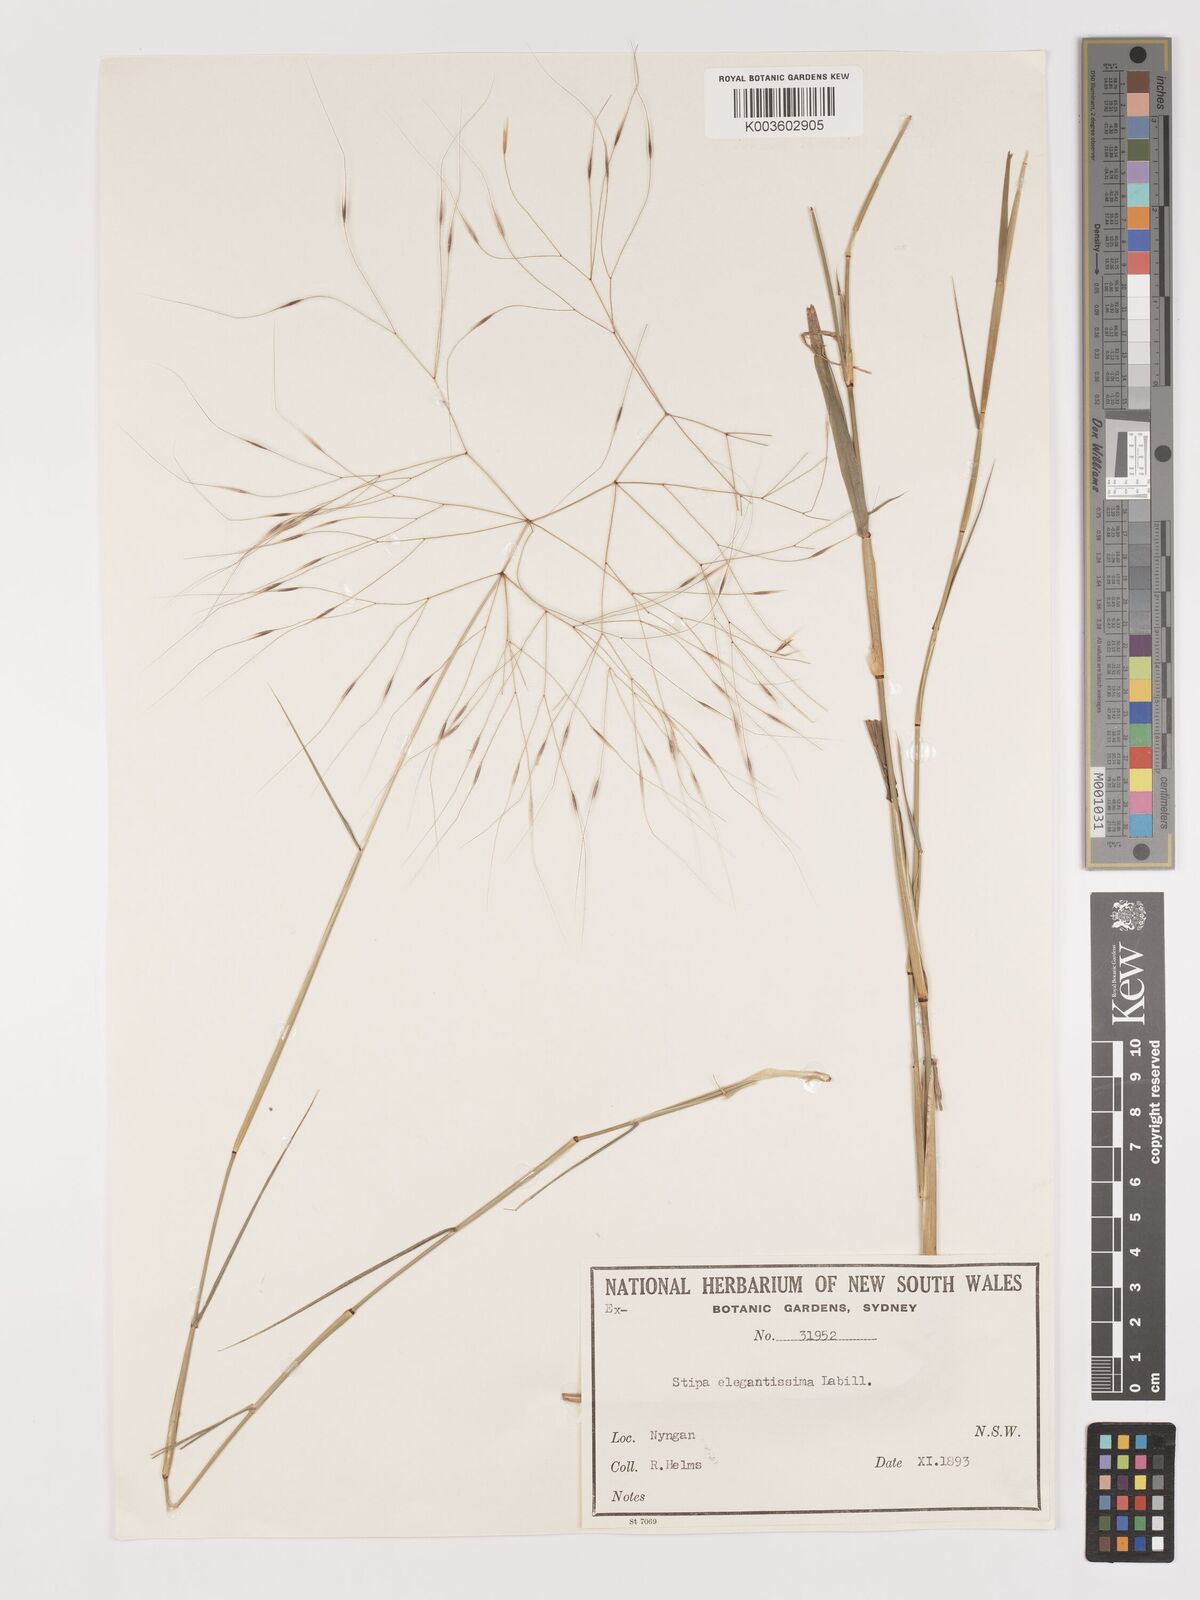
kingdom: Plantae
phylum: Tracheophyta
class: Liliopsida
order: Poales
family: Poaceae
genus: Austrostipa
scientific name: Austrostipa elegantissima
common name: Feather spear grass
